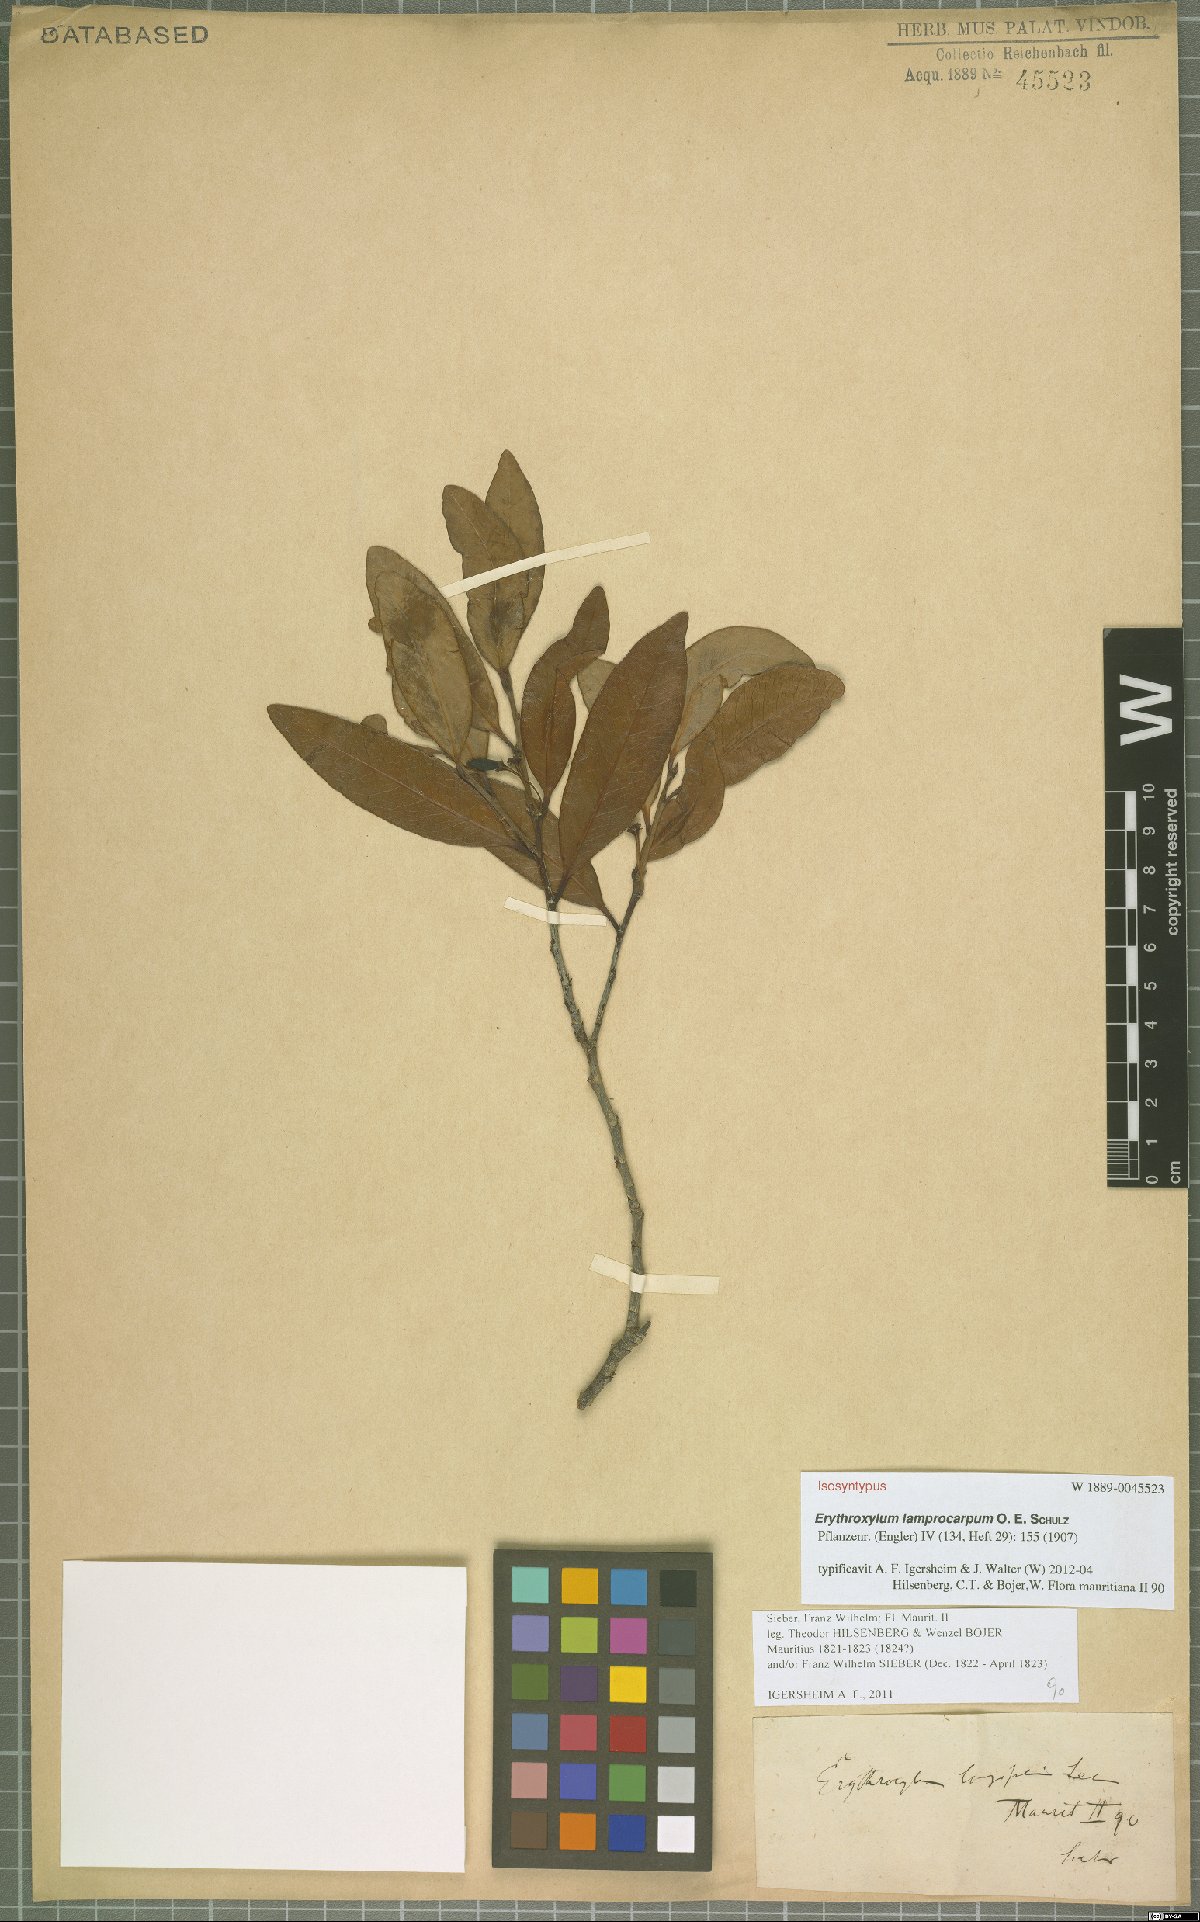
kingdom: Plantae
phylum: Tracheophyta
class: Magnoliopsida
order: Malpighiales
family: Erythroxylaceae
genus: Erythroxylum
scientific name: Erythroxylum sideroxyloides
